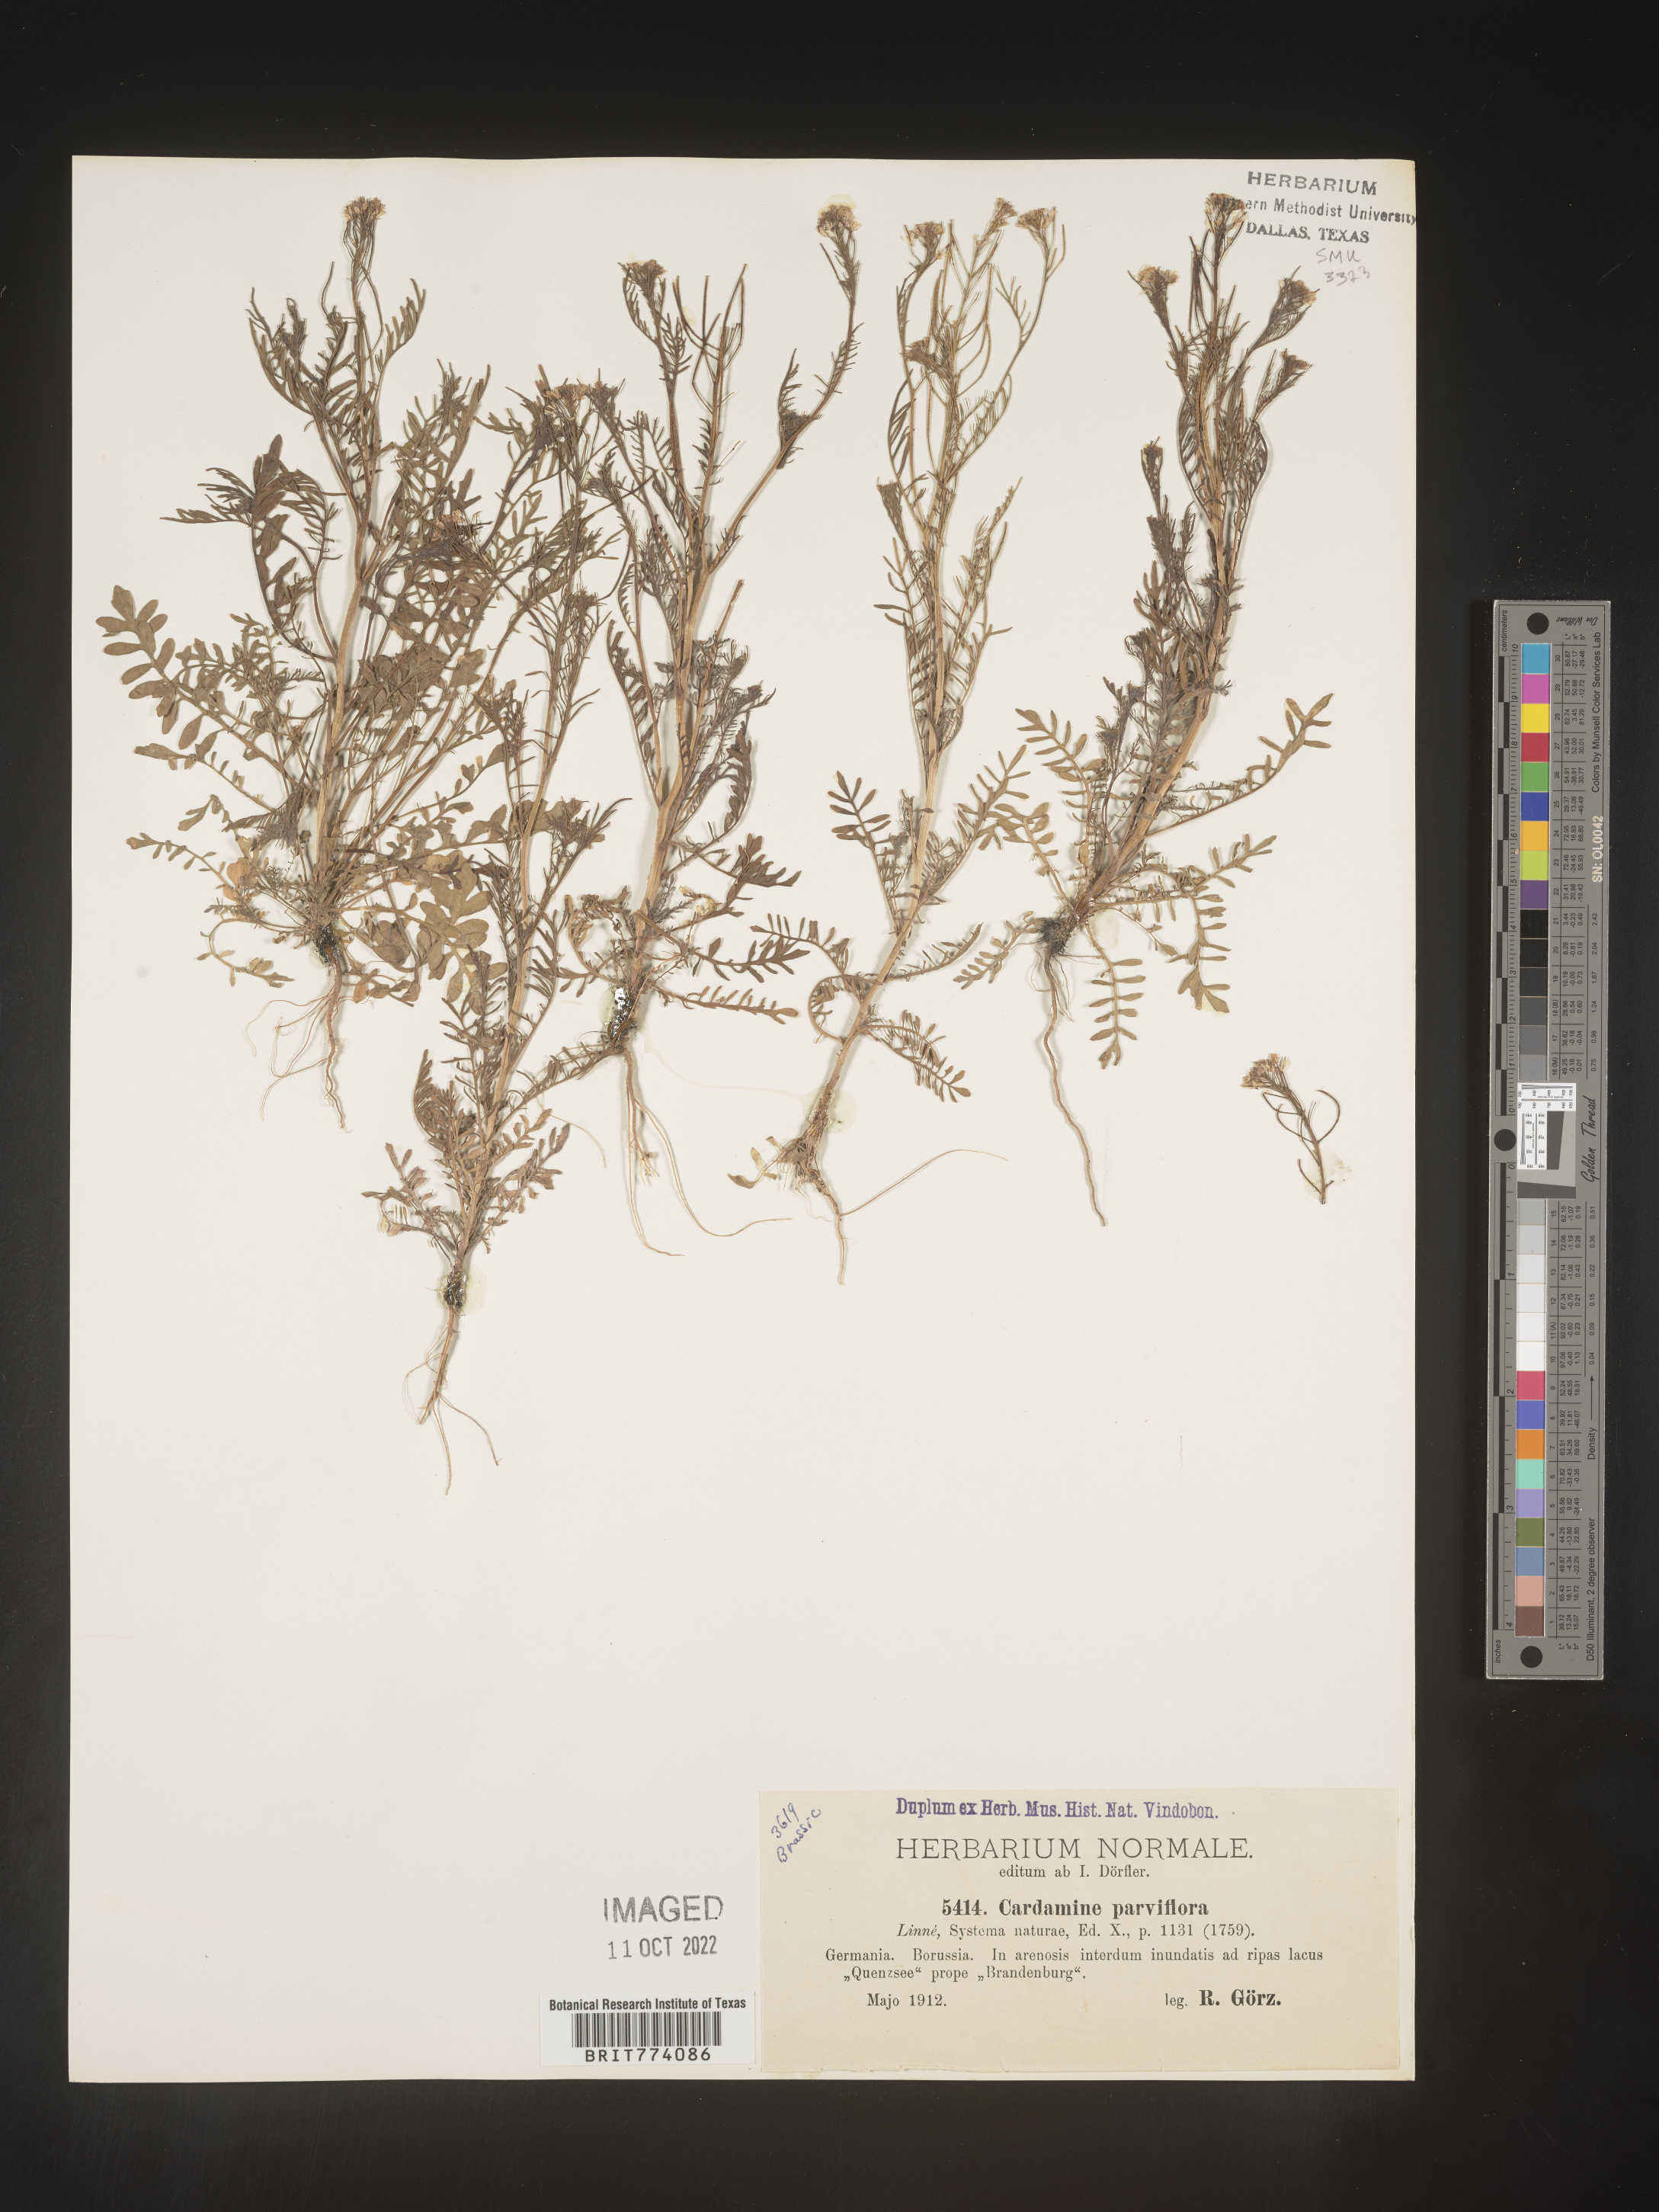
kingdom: Plantae
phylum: Tracheophyta
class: Magnoliopsida
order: Brassicales
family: Brassicaceae
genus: Cardamine
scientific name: Cardamine
